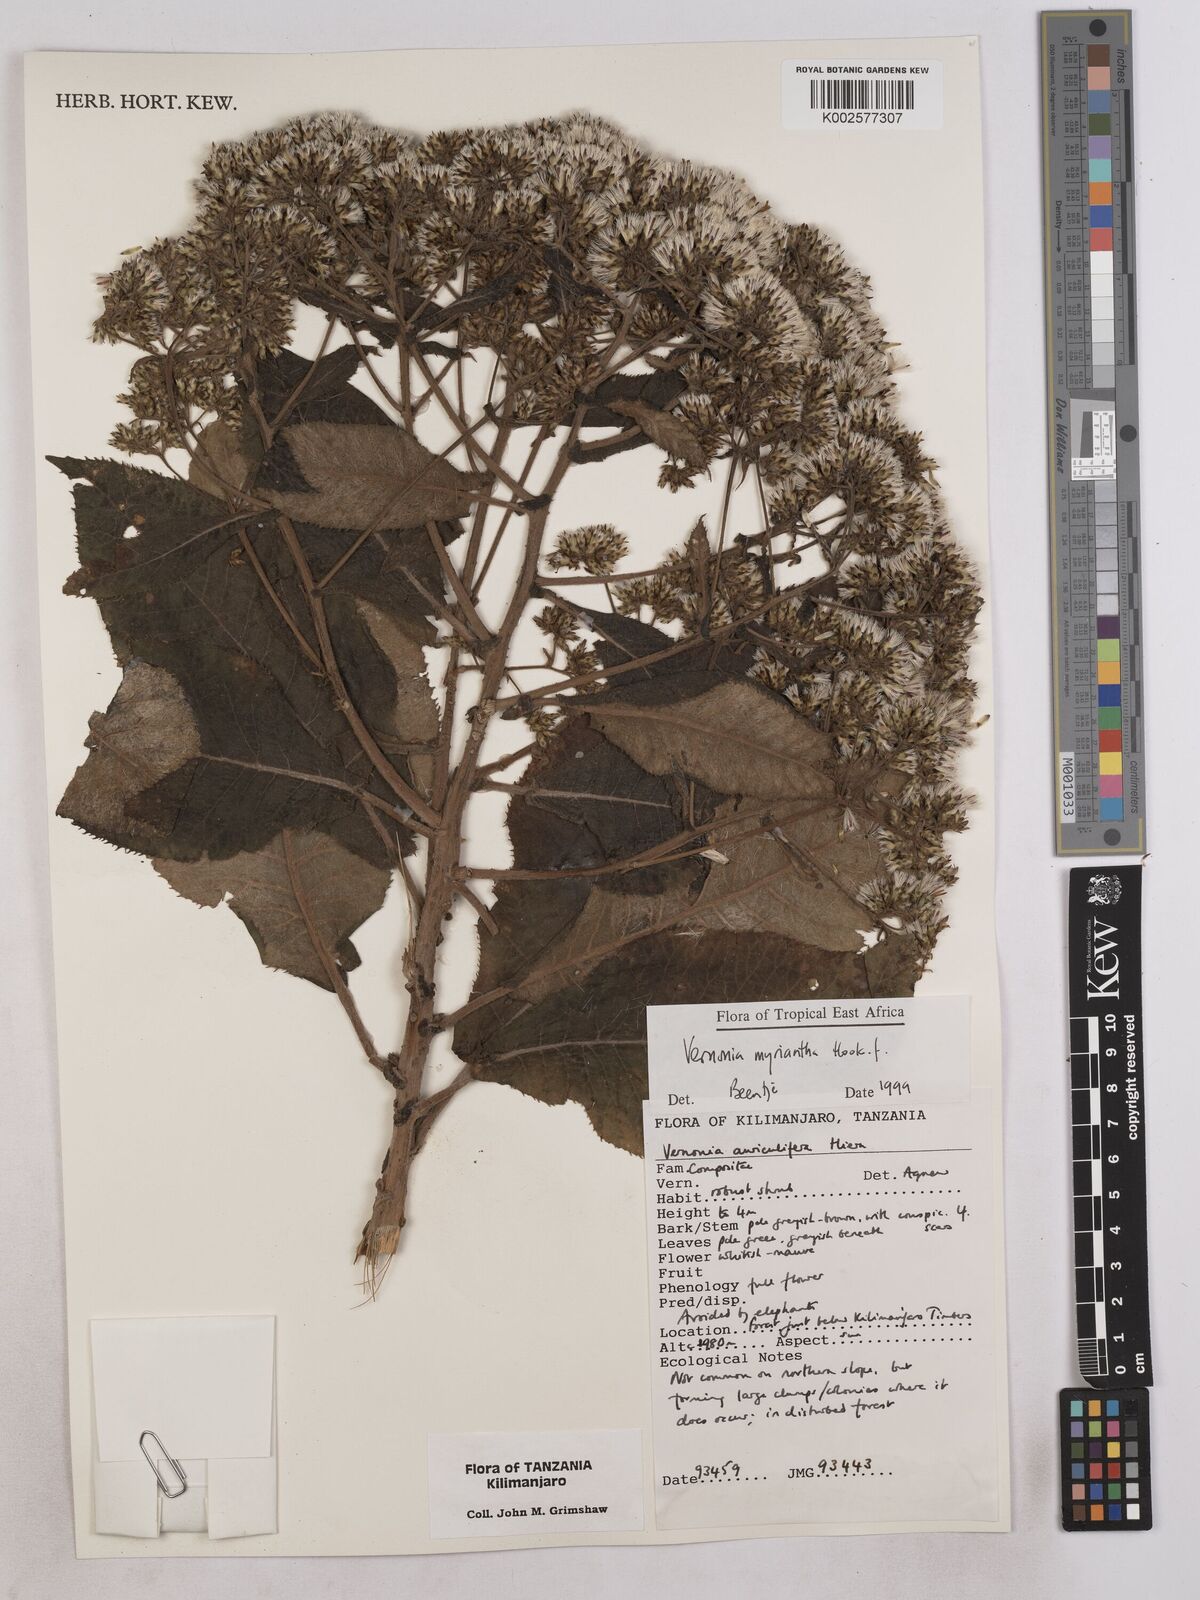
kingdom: Plantae
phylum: Tracheophyta
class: Magnoliopsida
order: Asterales
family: Asteraceae
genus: Gymnanthemum
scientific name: Gymnanthemum myrianthum
